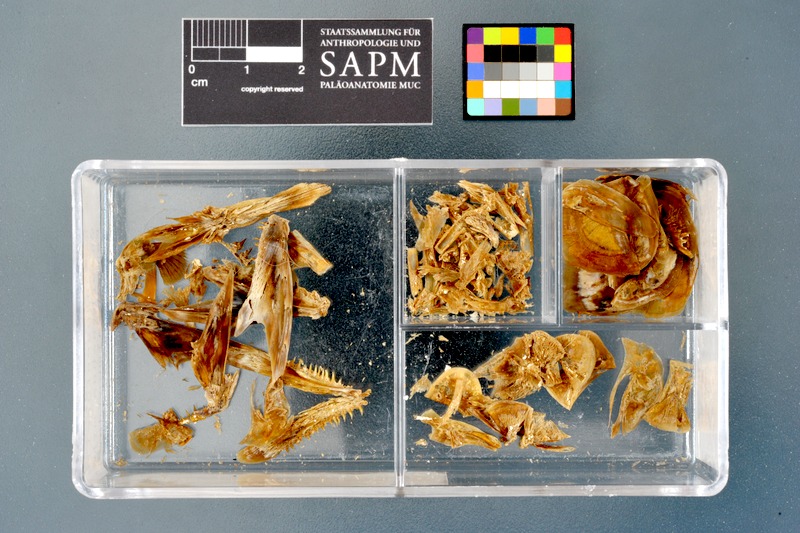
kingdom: Animalia
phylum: Chordata
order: Salmoniformes
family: Salmonidae
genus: Oncorhynchus
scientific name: Oncorhynchus mykiss
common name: Rainbow trout
